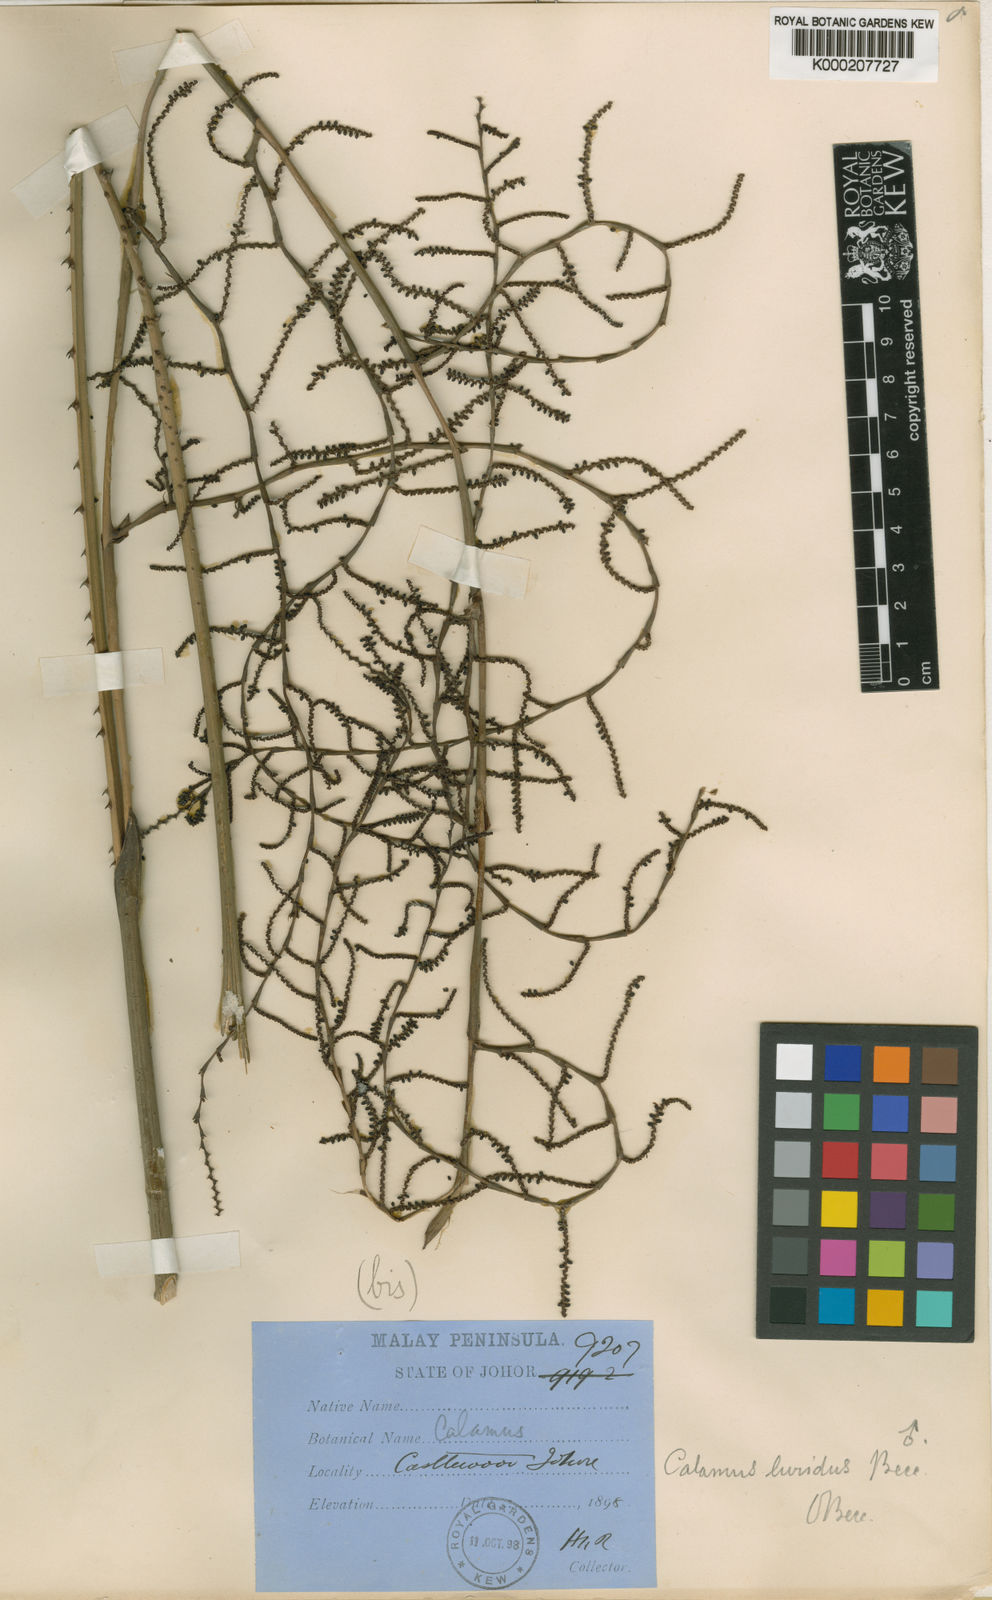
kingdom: Plantae
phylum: Tracheophyta
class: Liliopsida
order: Arecales
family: Arecaceae
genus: Calamus
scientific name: Calamus micranthus
